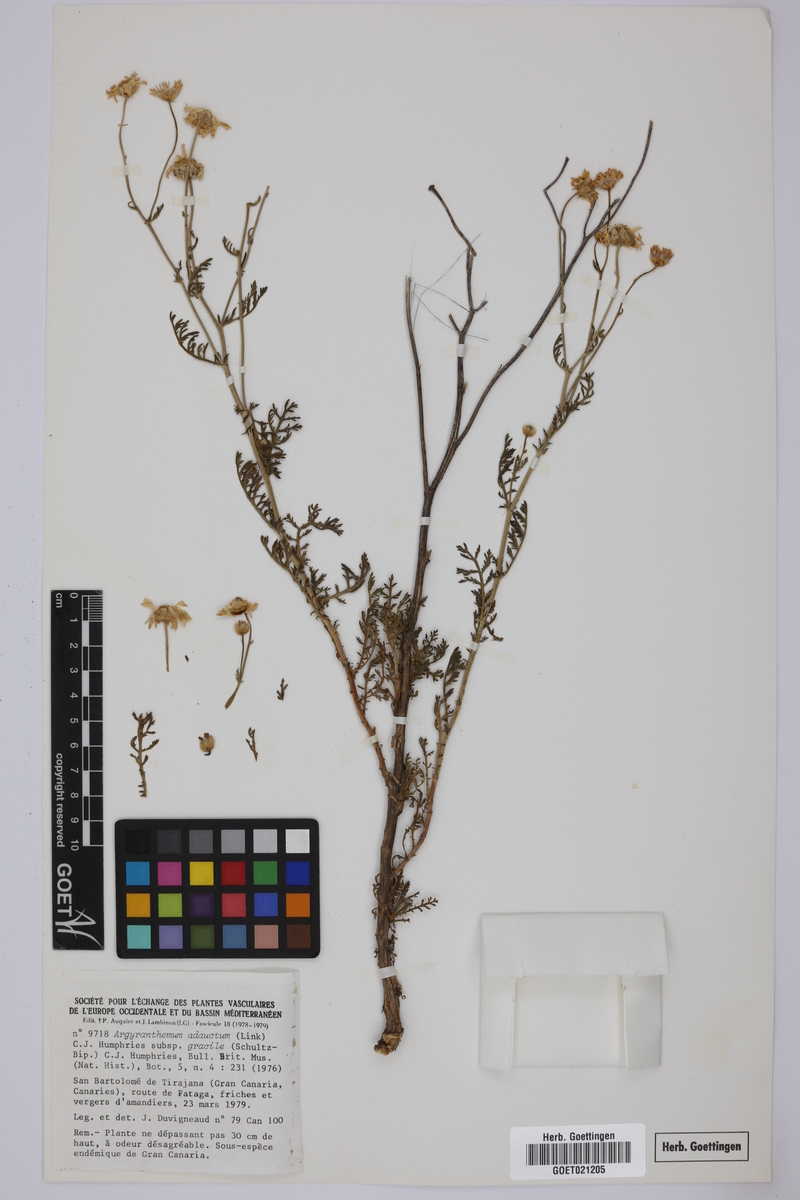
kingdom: Plantae
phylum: Tracheophyta
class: Magnoliopsida
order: Asterales
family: Asteraceae
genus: Argyranthemum
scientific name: Argyranthemum adauctum
